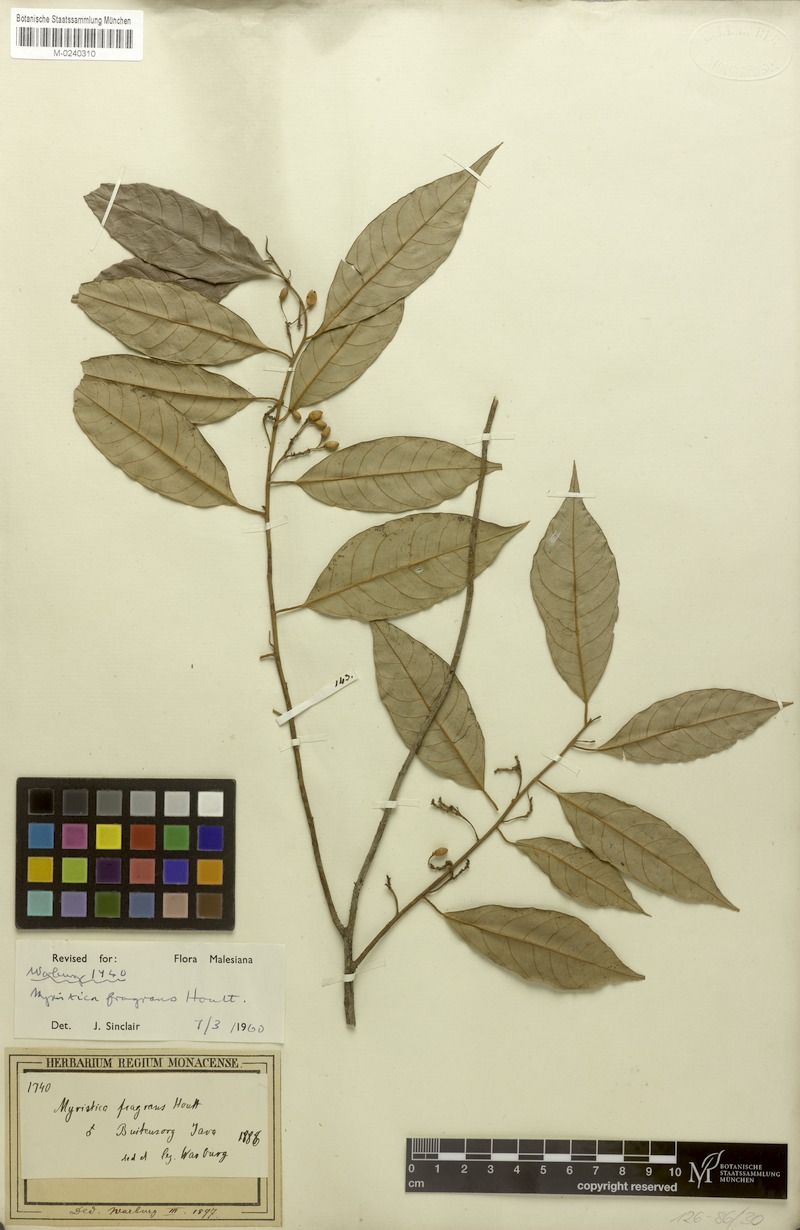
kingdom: Plantae
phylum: Tracheophyta
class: Magnoliopsida
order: Magnoliales
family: Myristicaceae
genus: Myristica
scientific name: Myristica fragrans
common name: Nutmeg
